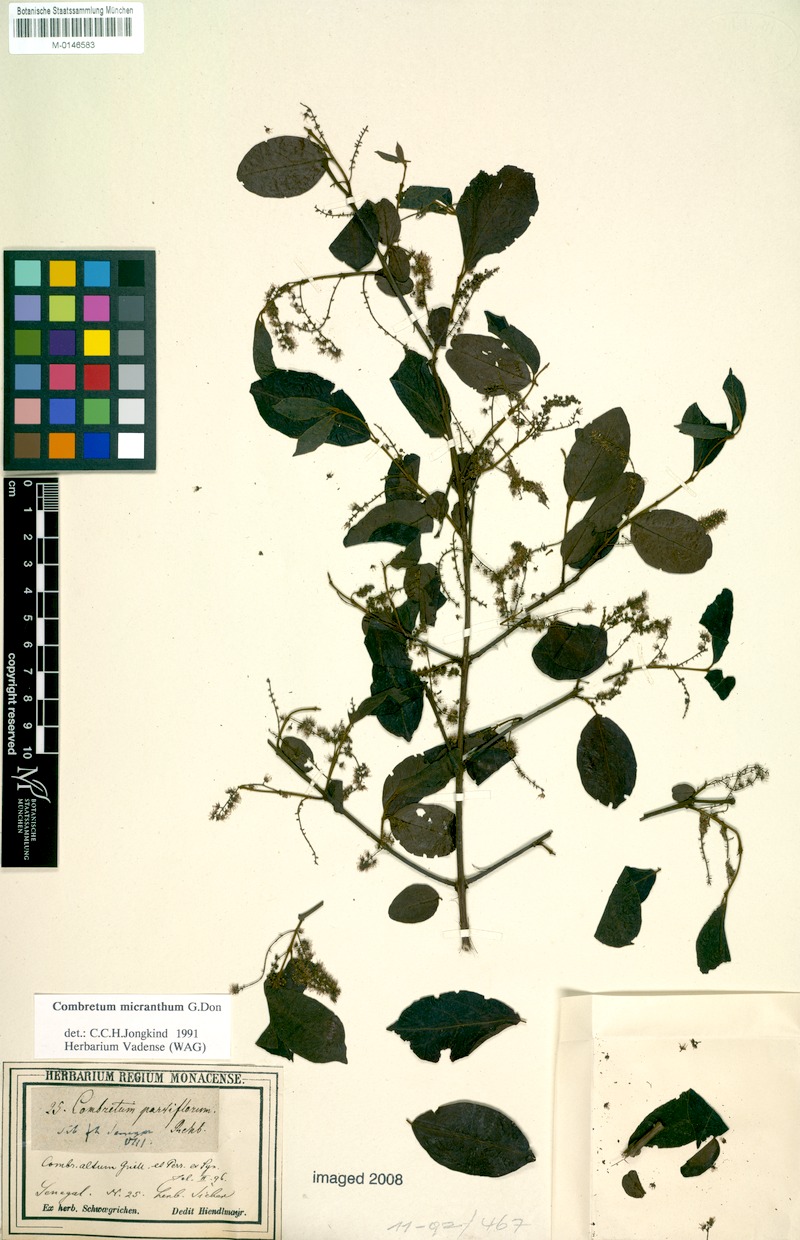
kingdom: Plantae
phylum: Tracheophyta
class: Magnoliopsida
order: Myrtales
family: Combretaceae
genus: Combretum
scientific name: Combretum micranthum
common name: Opium-antidote
